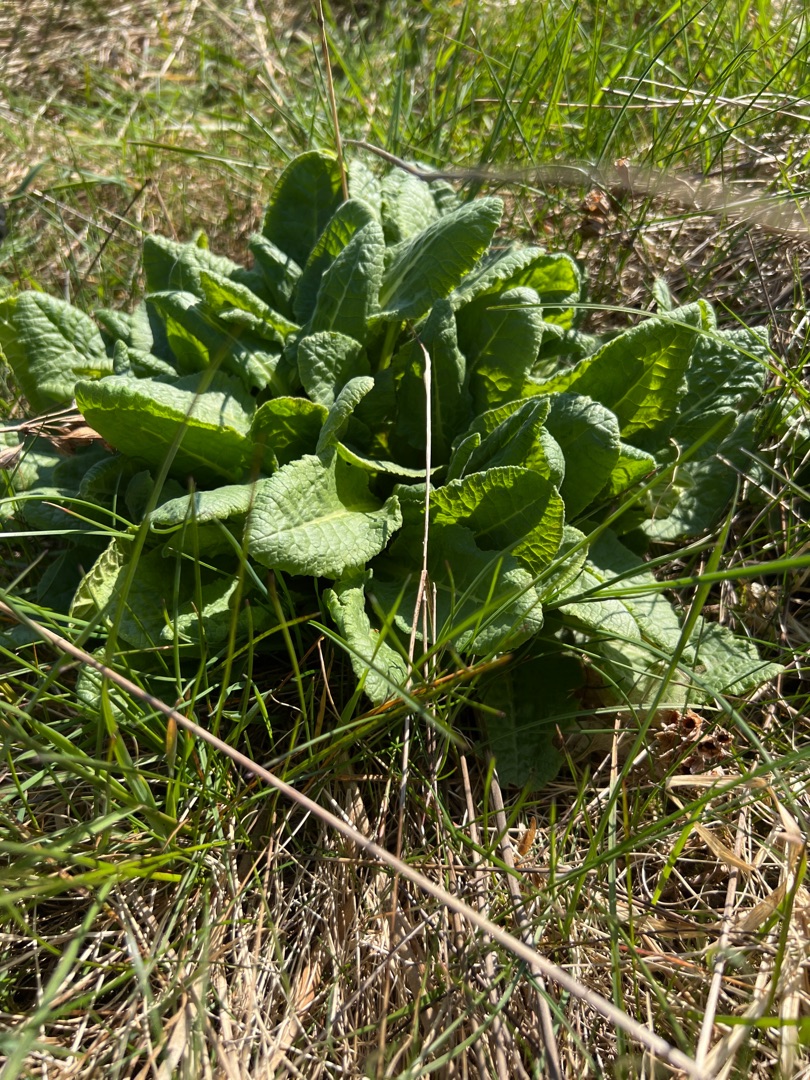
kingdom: Plantae
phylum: Tracheophyta
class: Magnoliopsida
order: Ericales
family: Primulaceae
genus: Primula
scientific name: Primula veris
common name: Hulkravet kodriver
